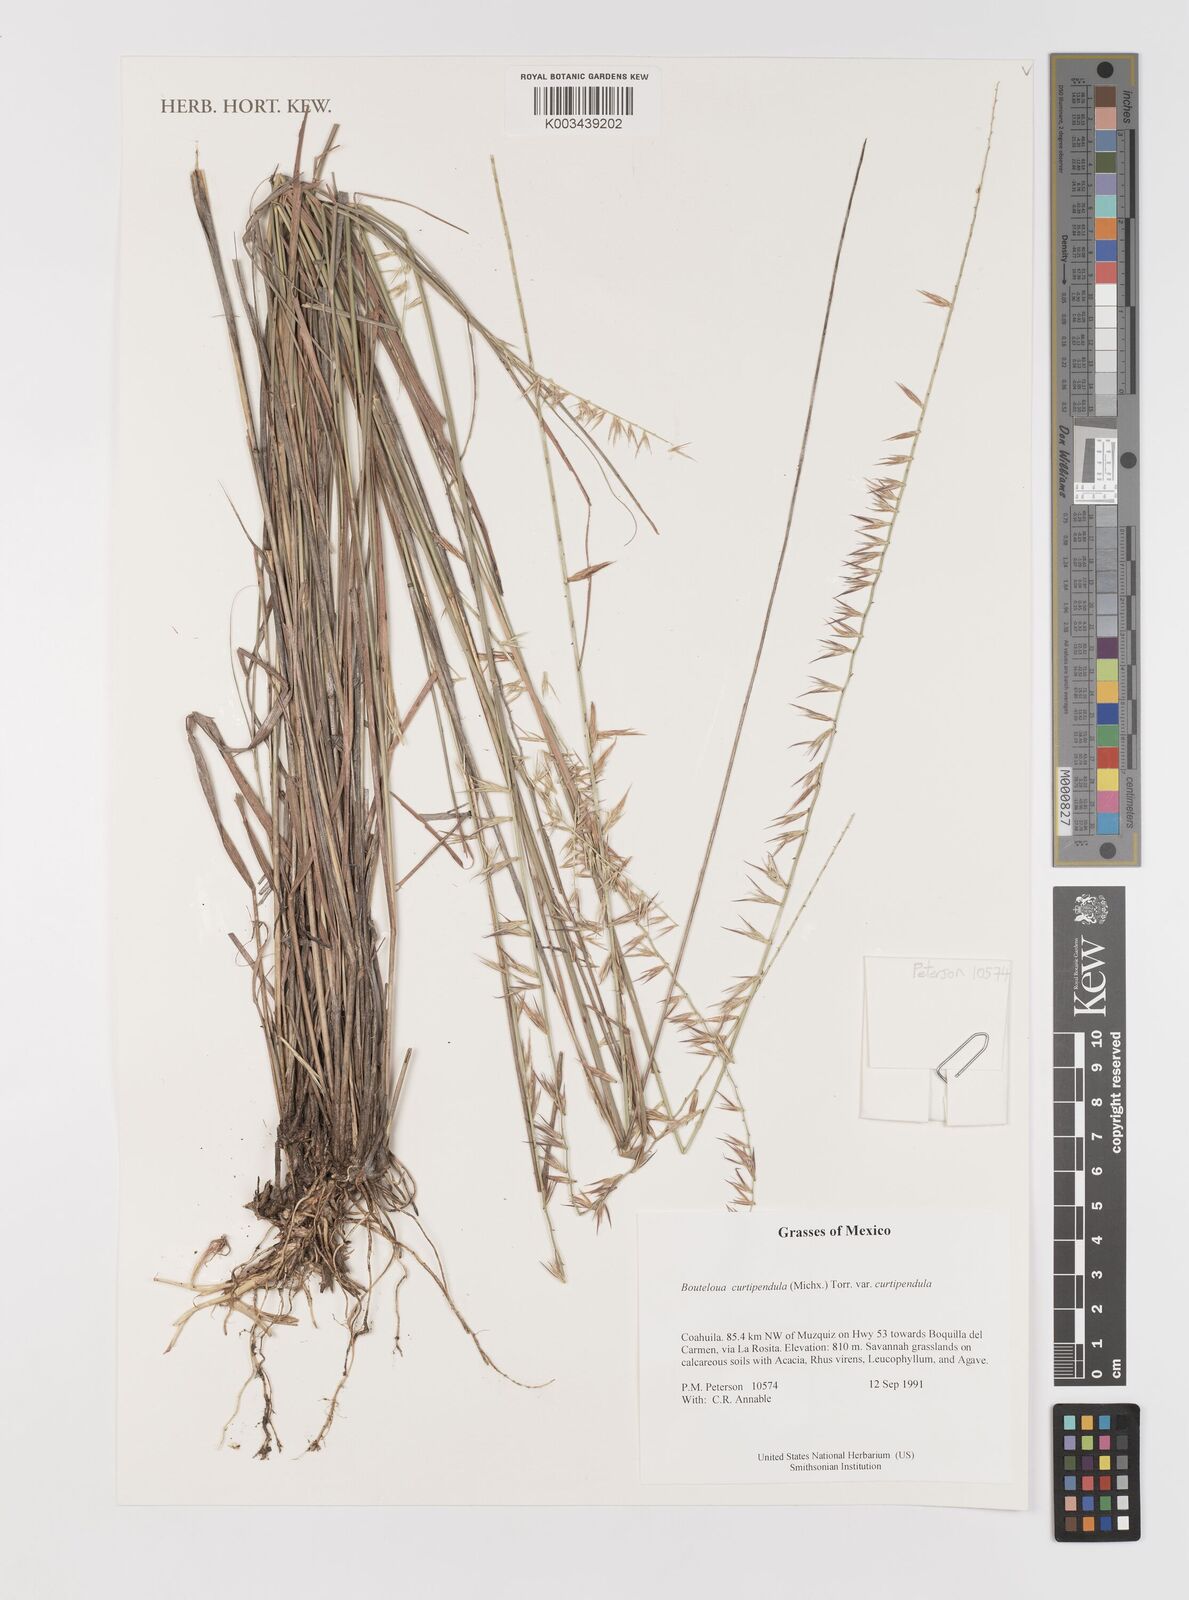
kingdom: Plantae
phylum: Tracheophyta
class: Liliopsida
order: Poales
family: Poaceae
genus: Bouteloua
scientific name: Bouteloua curtipendula
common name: Side-oats grama
